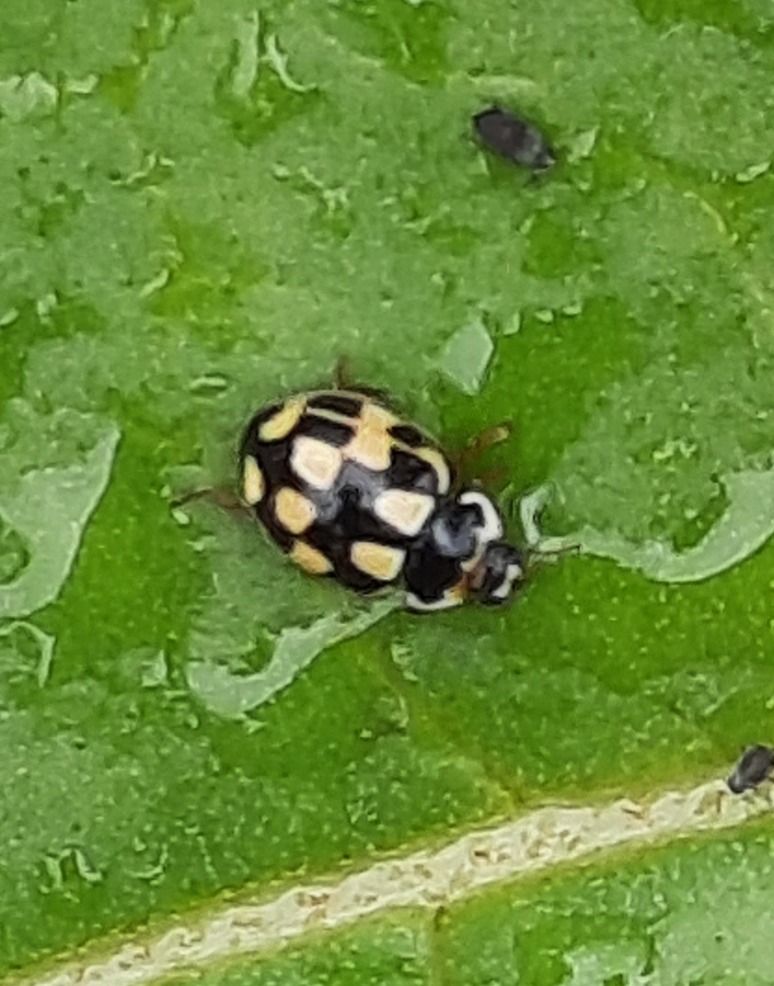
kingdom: Animalia
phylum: Arthropoda
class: Insecta
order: Coleoptera
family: Coccinellidae
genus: Propylaea
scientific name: Propylaea quatuordecimpunctata
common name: Skakbræt
